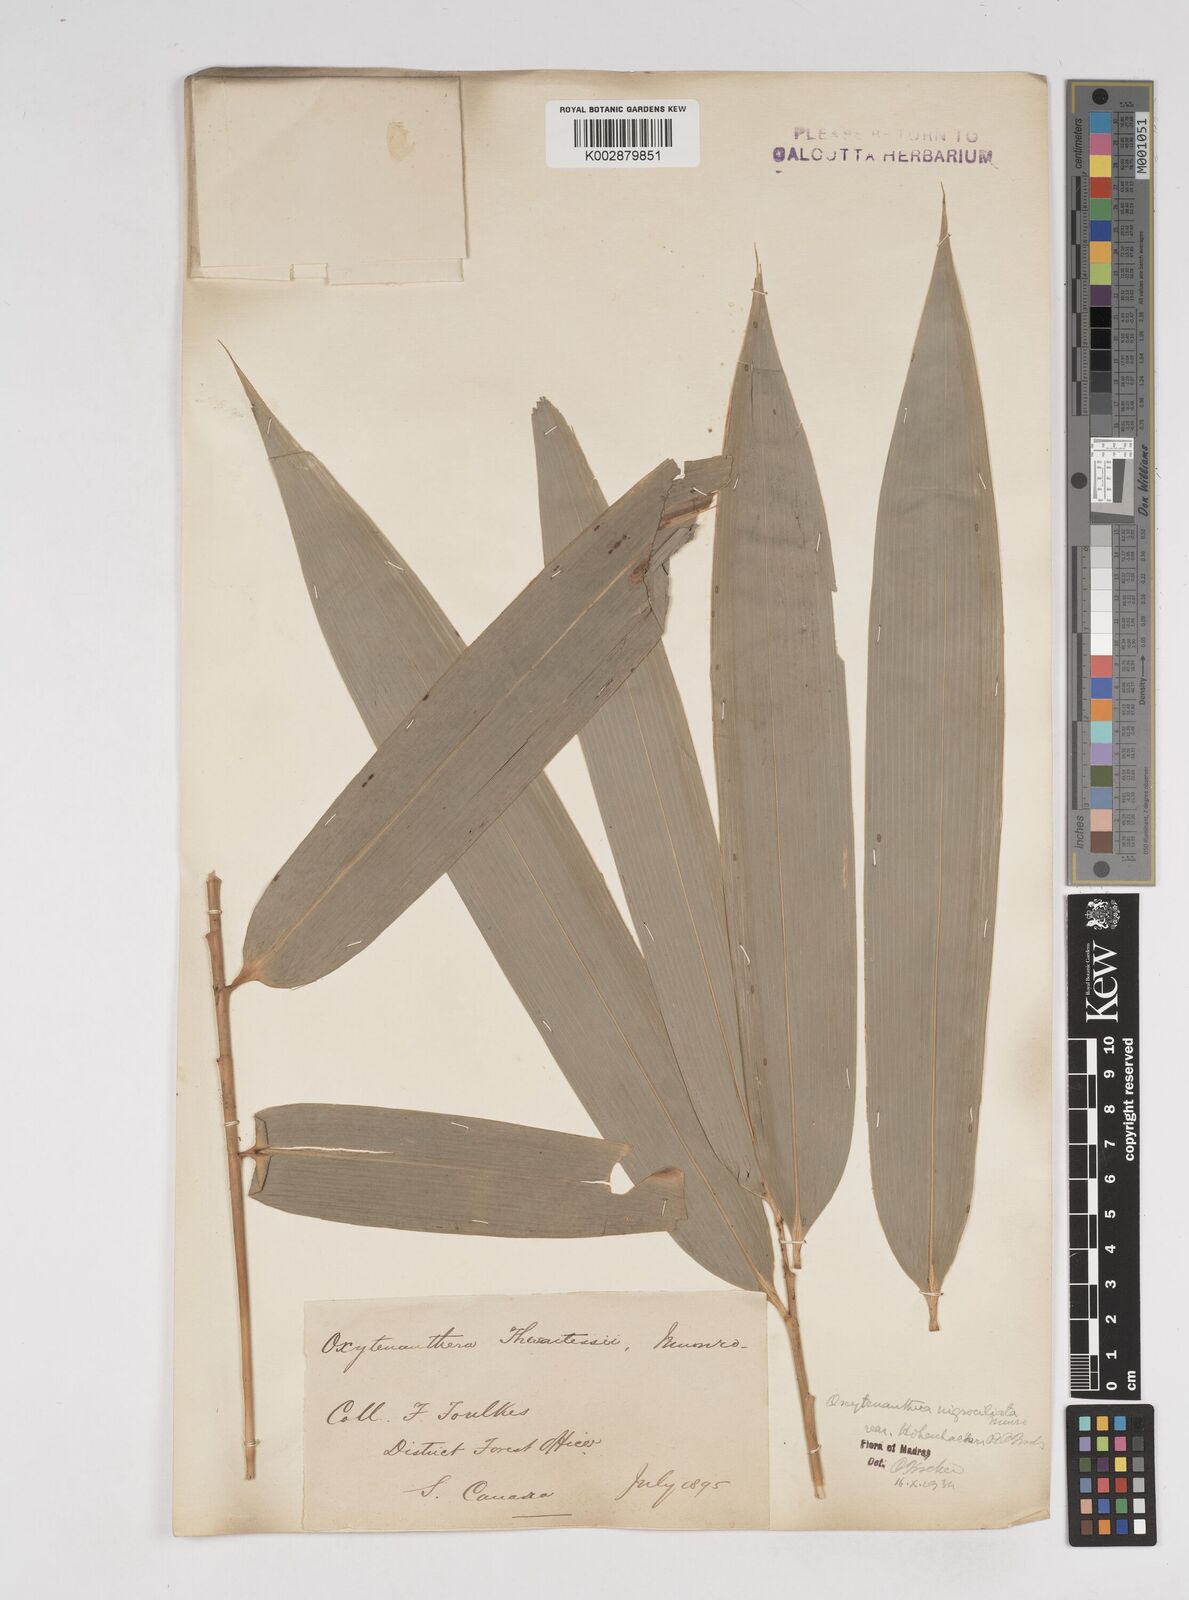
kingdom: Plantae
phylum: Tracheophyta
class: Liliopsida
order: Poales
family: Poaceae
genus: Gigantochloa
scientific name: Gigantochloa latifolia
